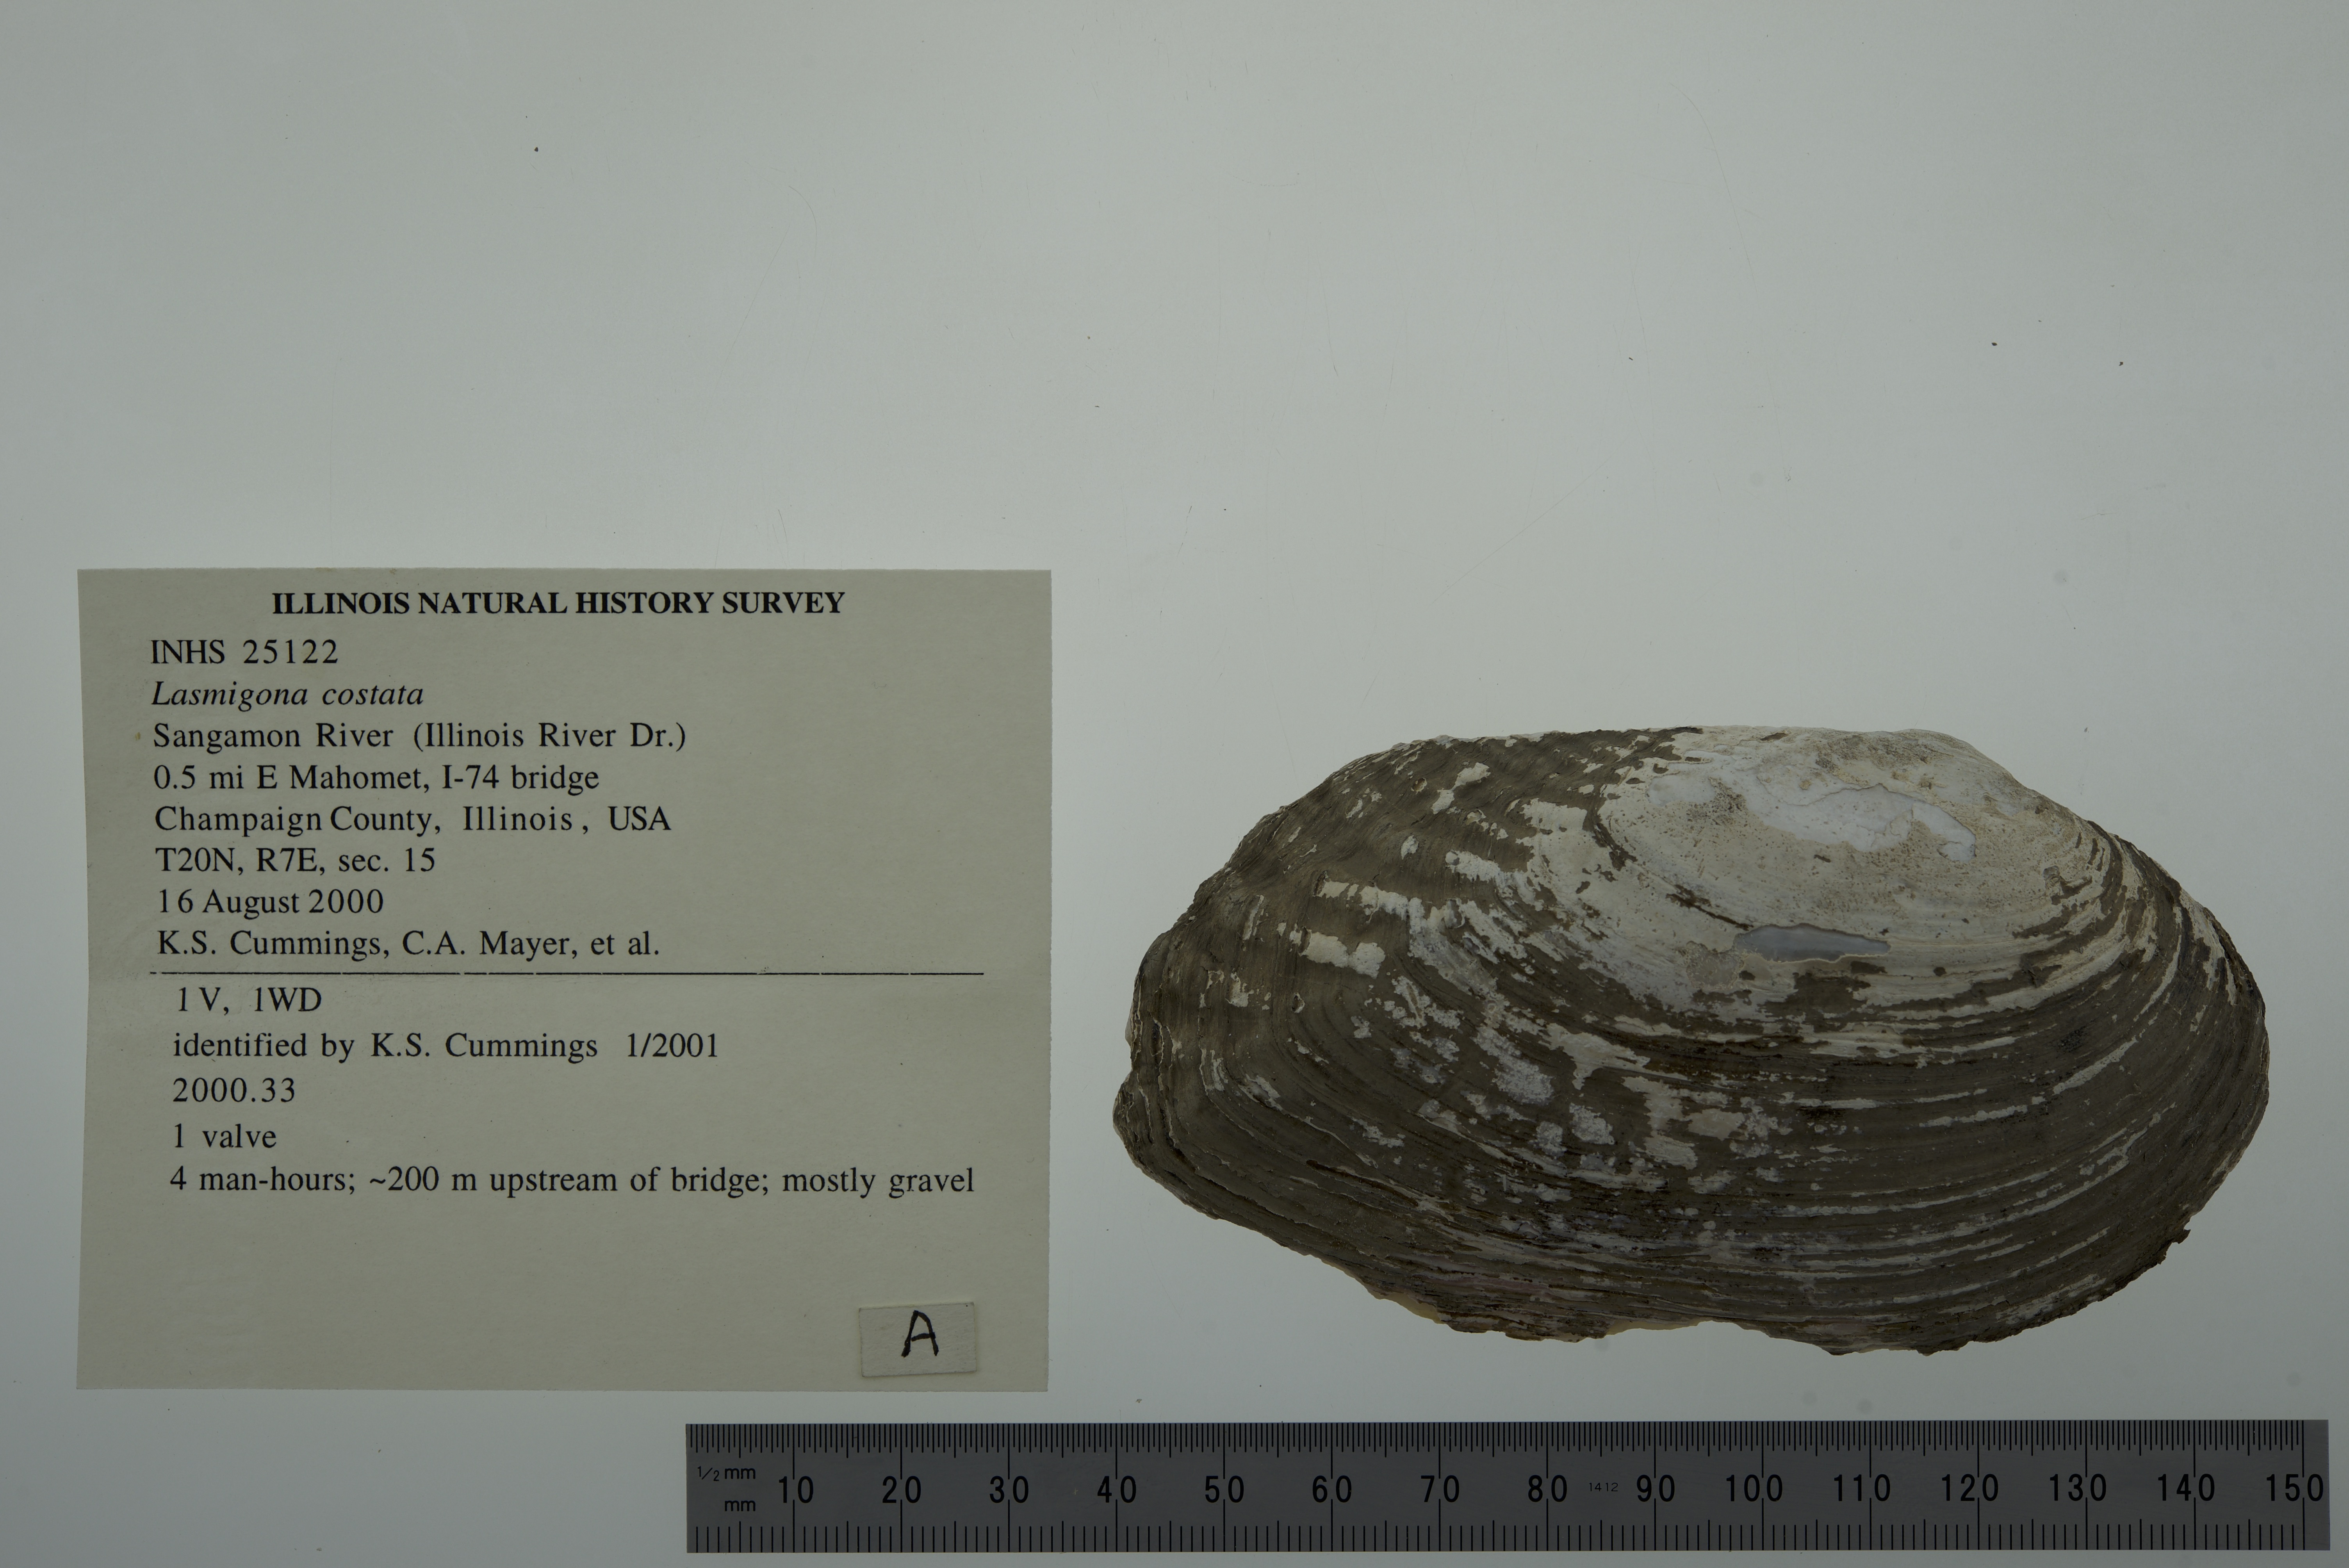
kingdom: Animalia
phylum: Mollusca
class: Bivalvia
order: Unionida
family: Unionidae
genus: Lasmigona
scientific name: Lasmigona costata
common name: Flutedshell
